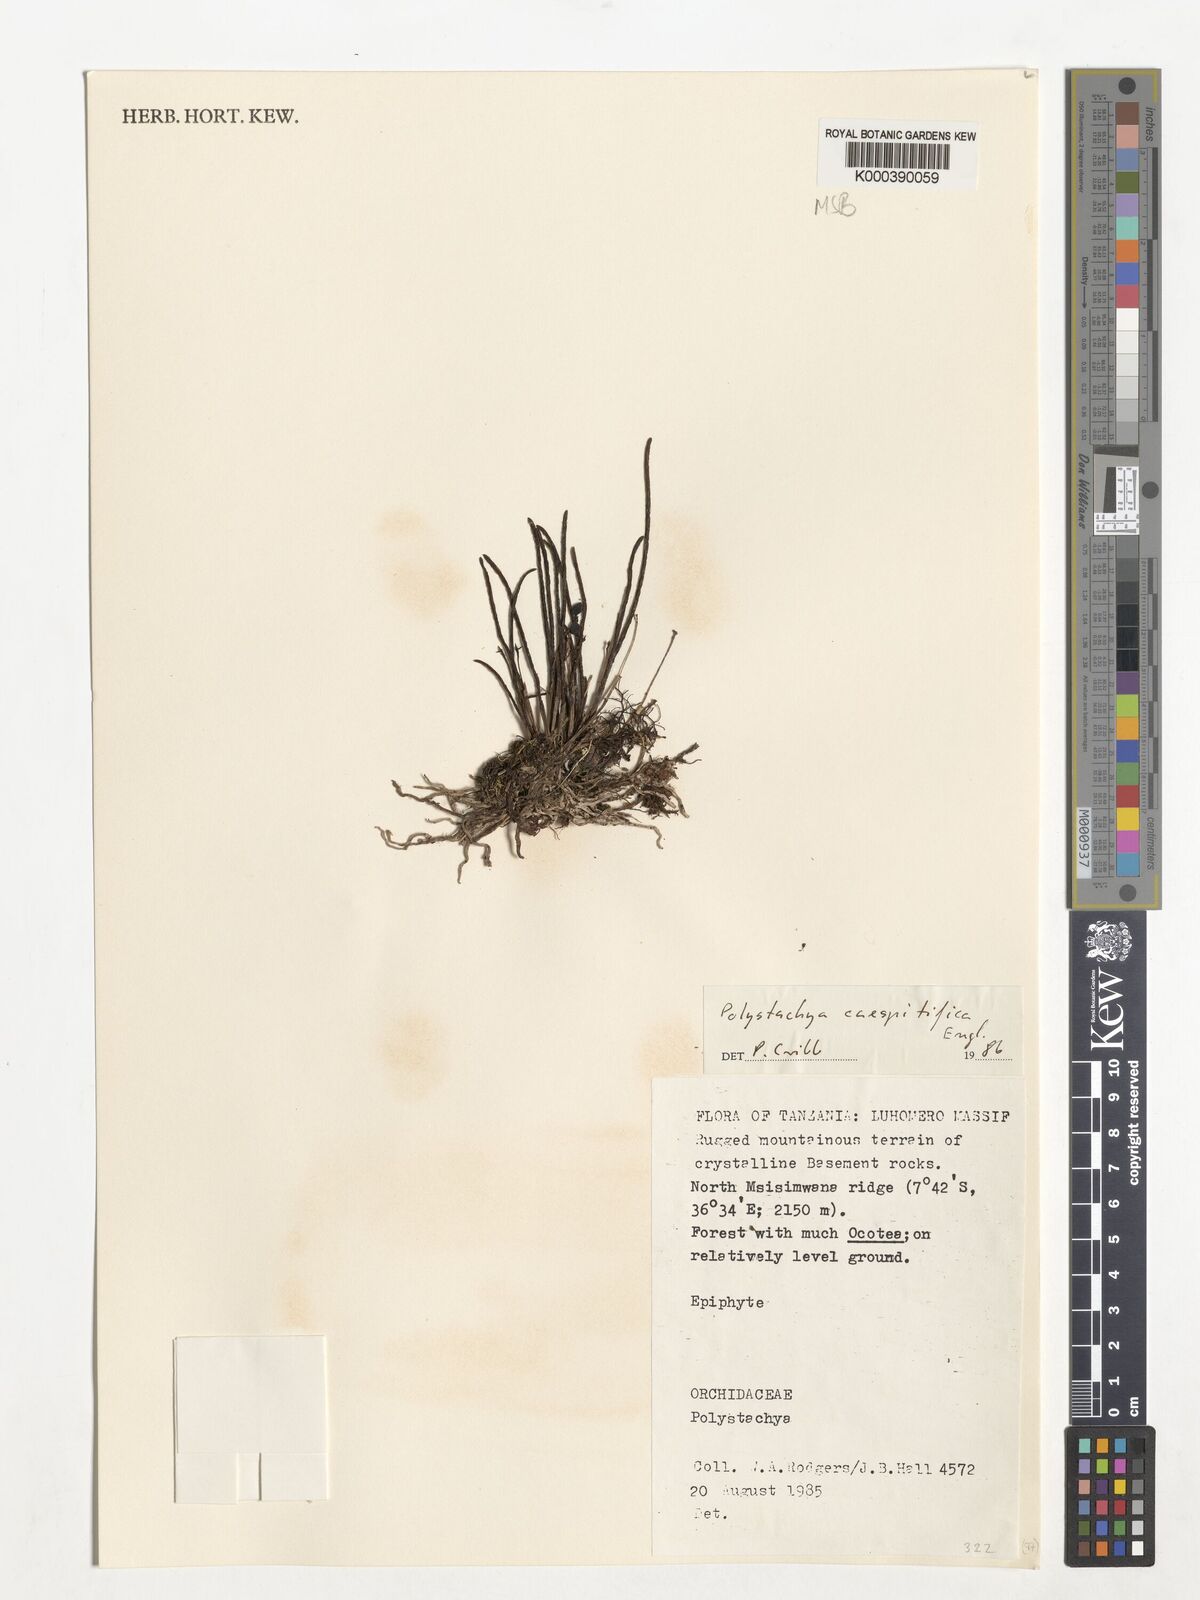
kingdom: Plantae
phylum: Tracheophyta
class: Liliopsida
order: Asparagales
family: Orchidaceae
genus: Polystachya
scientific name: Polystachya caespitifica
